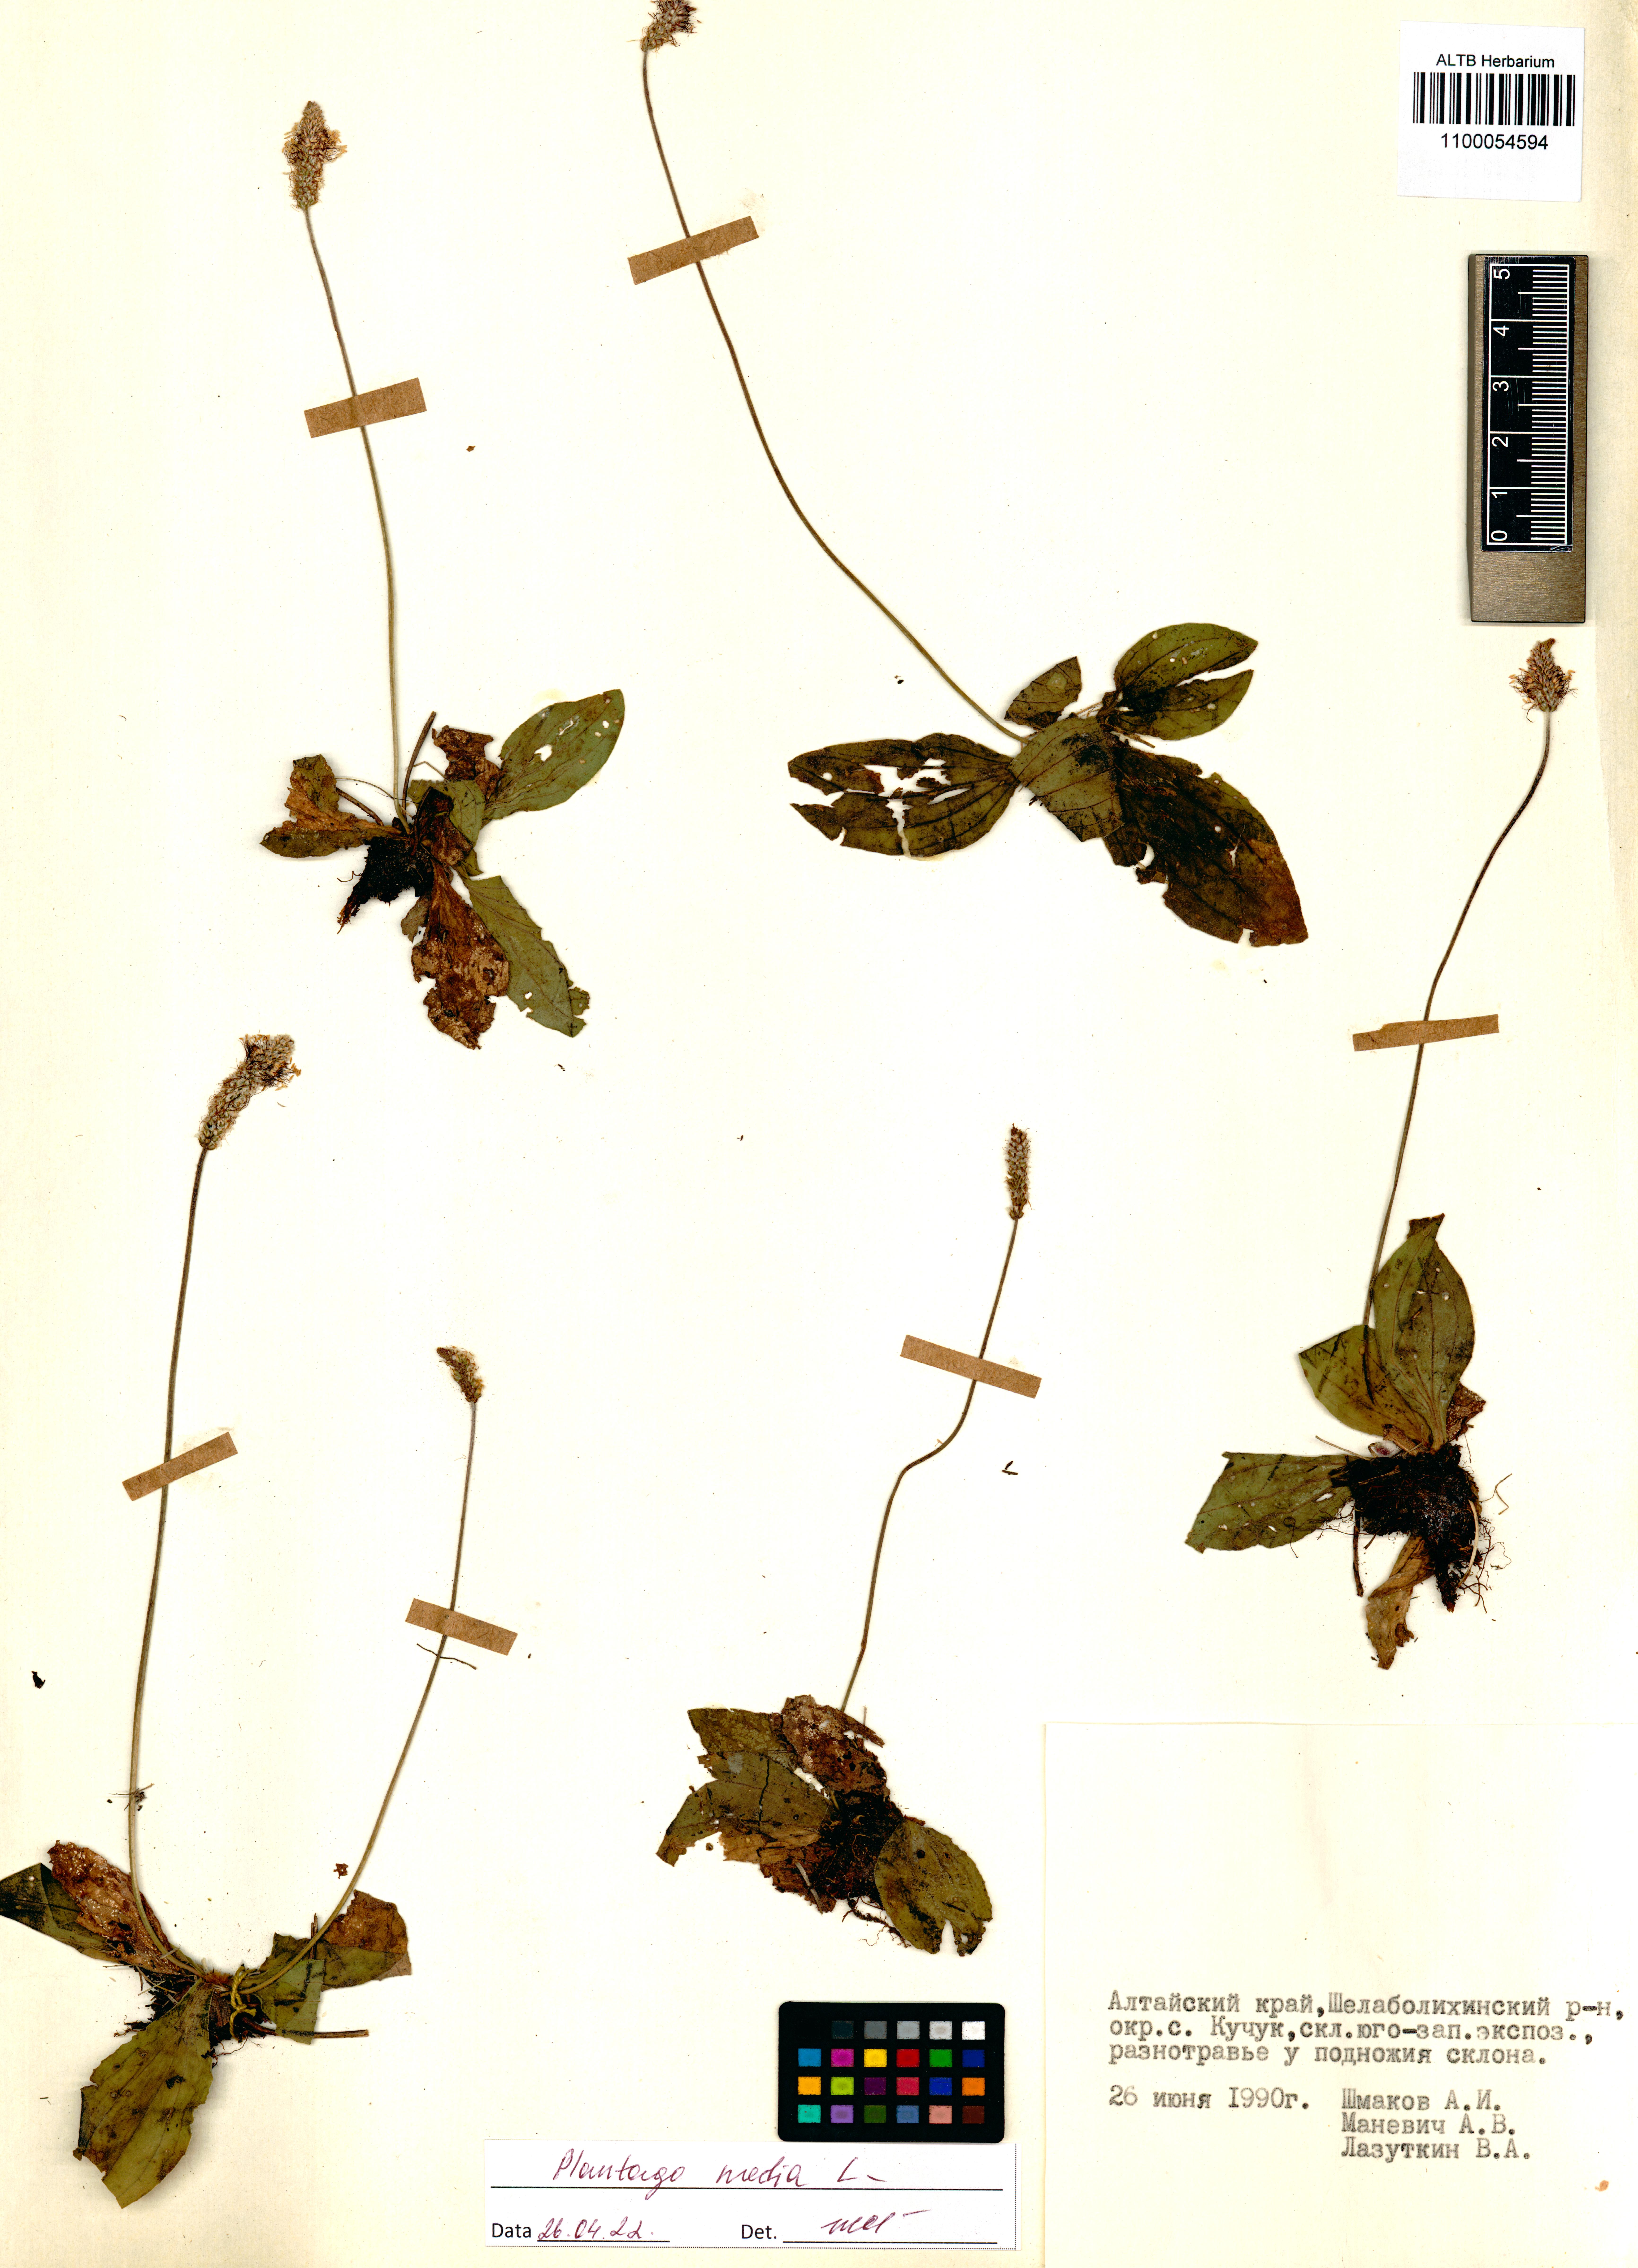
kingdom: Plantae
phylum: Tracheophyta
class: Magnoliopsida
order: Lamiales
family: Plantaginaceae
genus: Plantago
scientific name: Plantago media
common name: Hoary plantain
